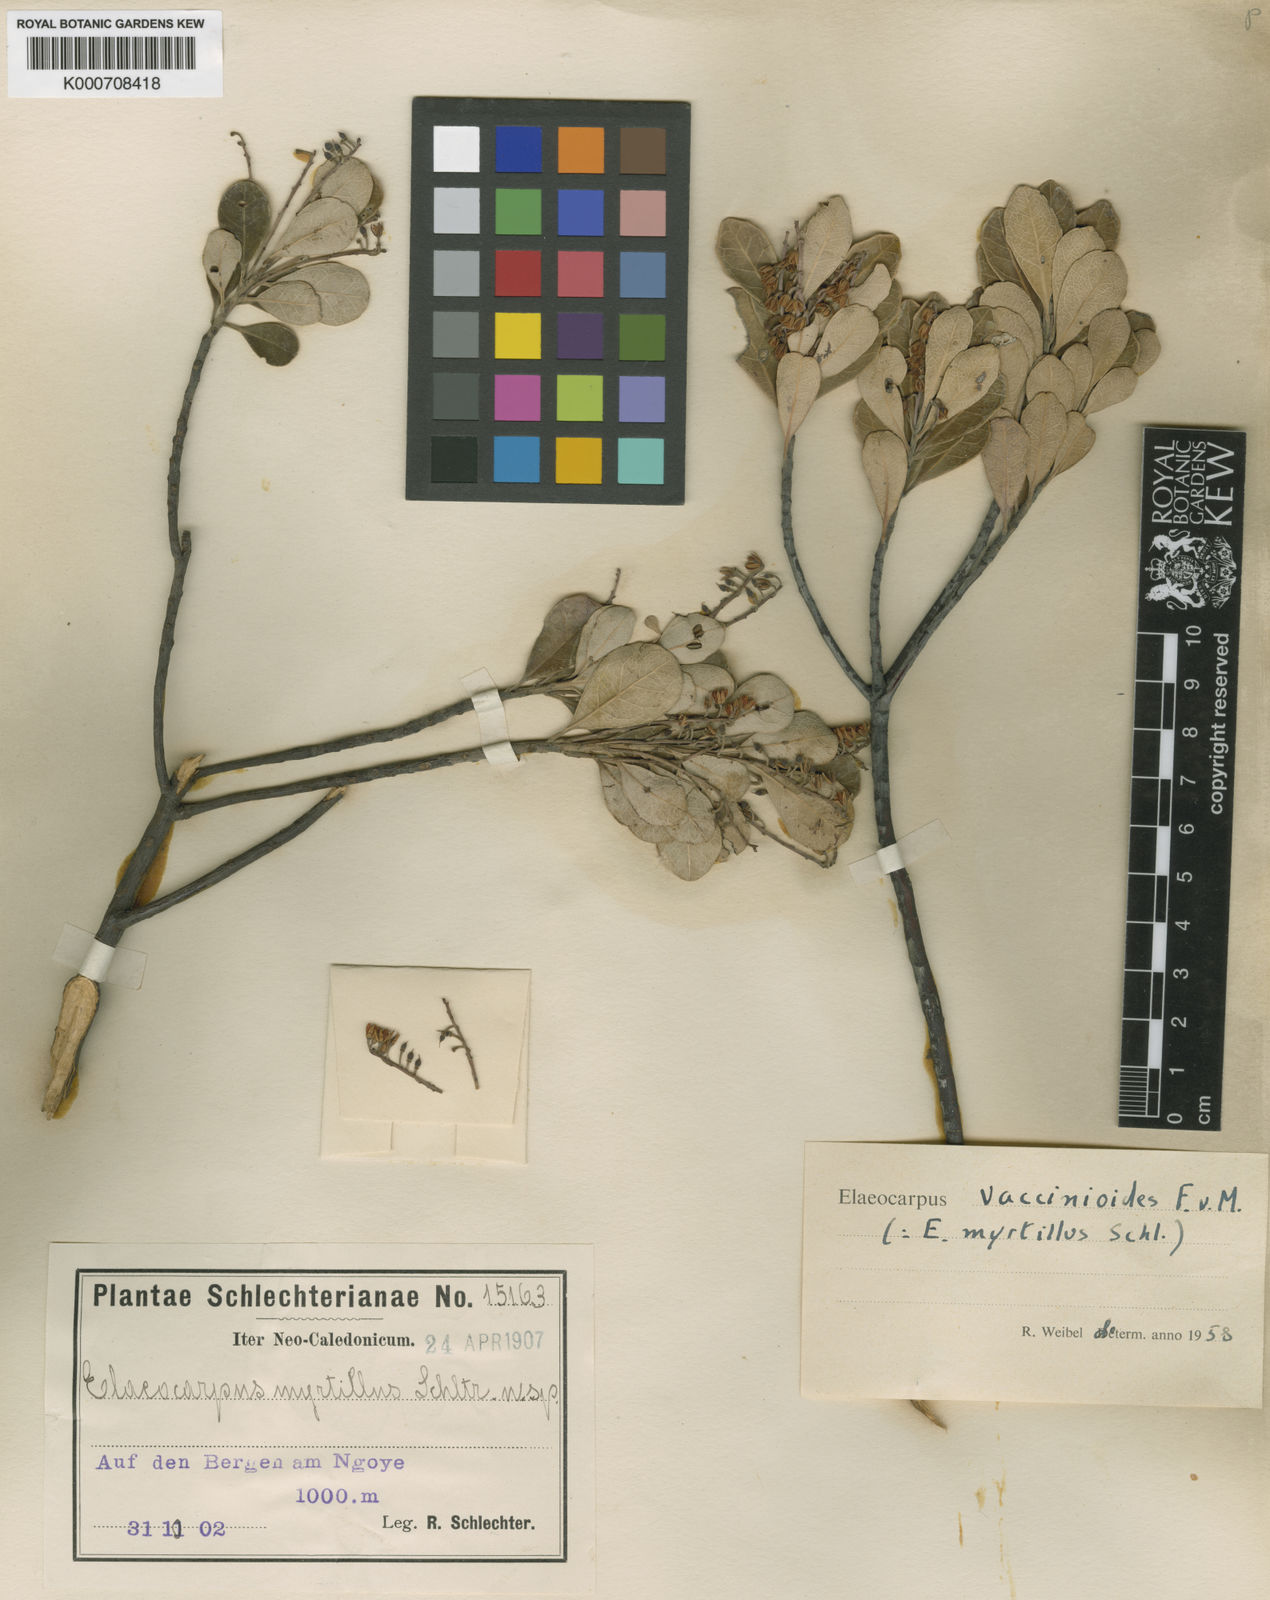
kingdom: Plantae
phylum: Tracheophyta
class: Magnoliopsida
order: Oxalidales
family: Elaeocarpaceae
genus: Elaeocarpus
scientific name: Elaeocarpus vaccinioides
